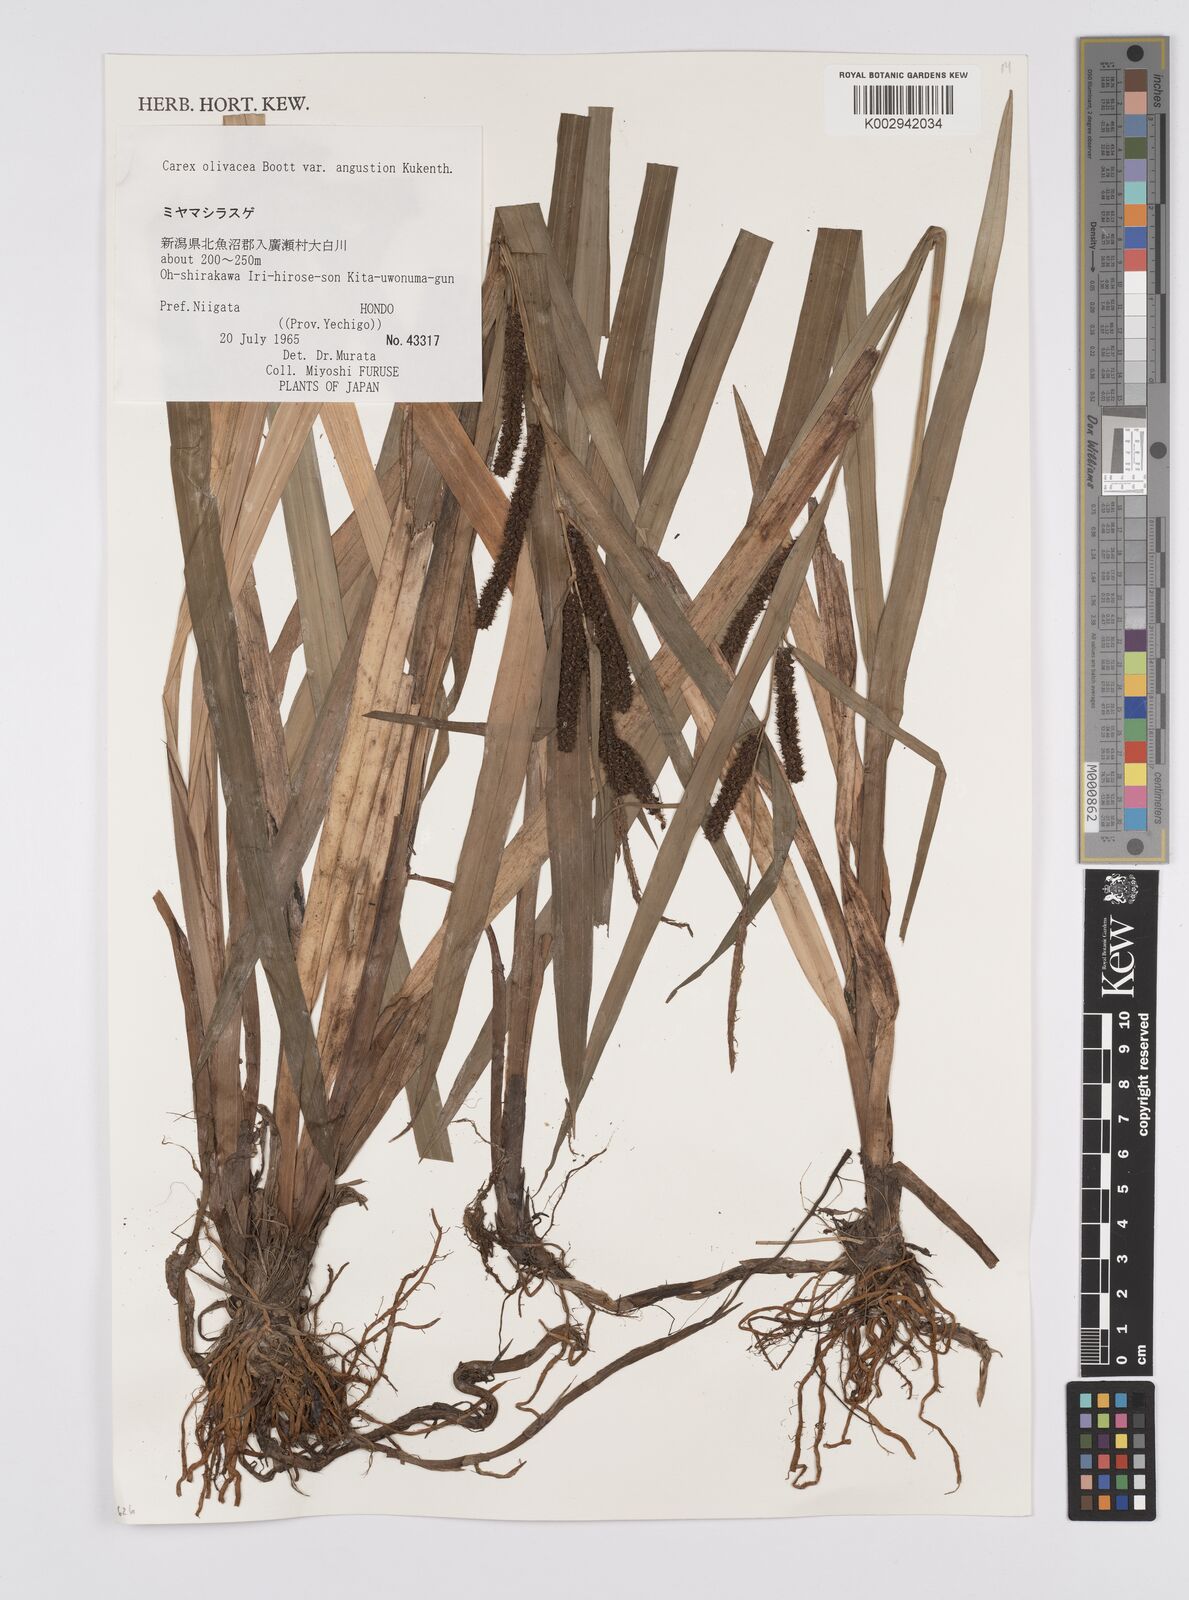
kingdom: Plantae
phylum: Tracheophyta
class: Liliopsida
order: Poales
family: Cyperaceae
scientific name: Cyperaceae
